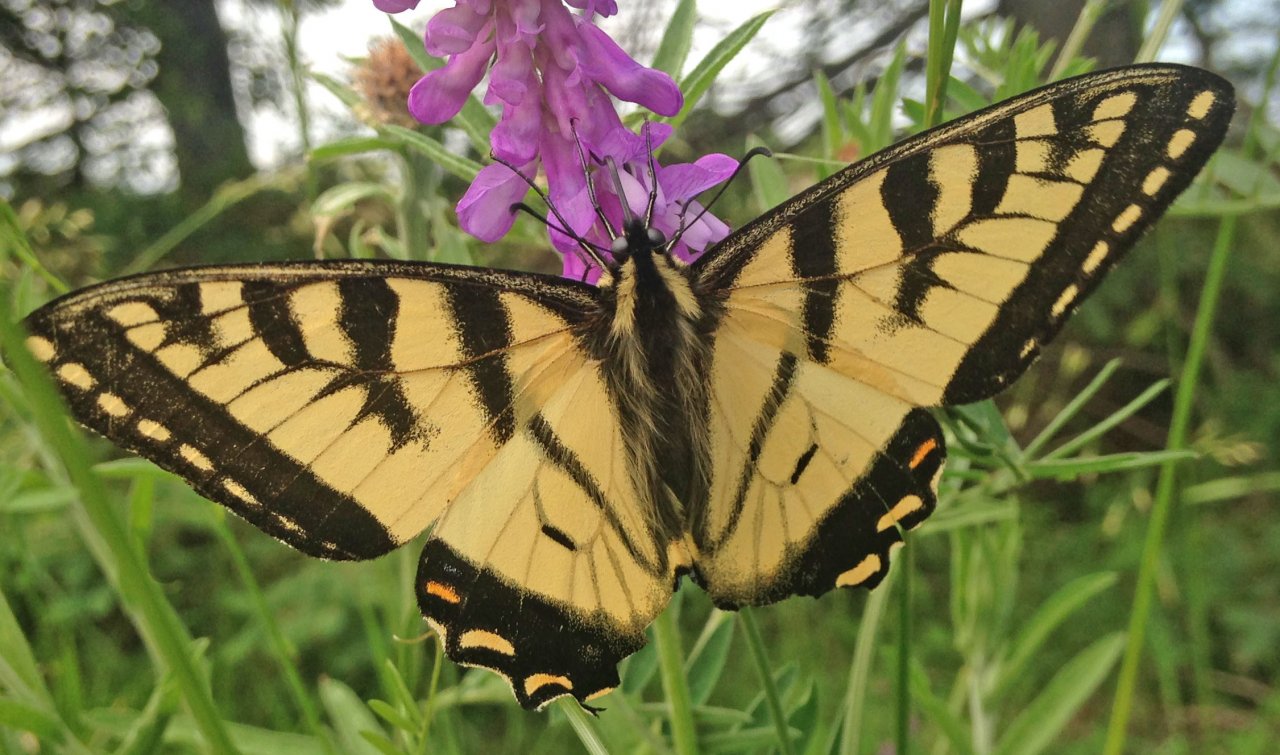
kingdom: Animalia
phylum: Arthropoda
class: Insecta
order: Lepidoptera
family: Papilionidae
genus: Pterourus
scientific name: Pterourus canadensis
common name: Canadian Tiger Swallowtail
